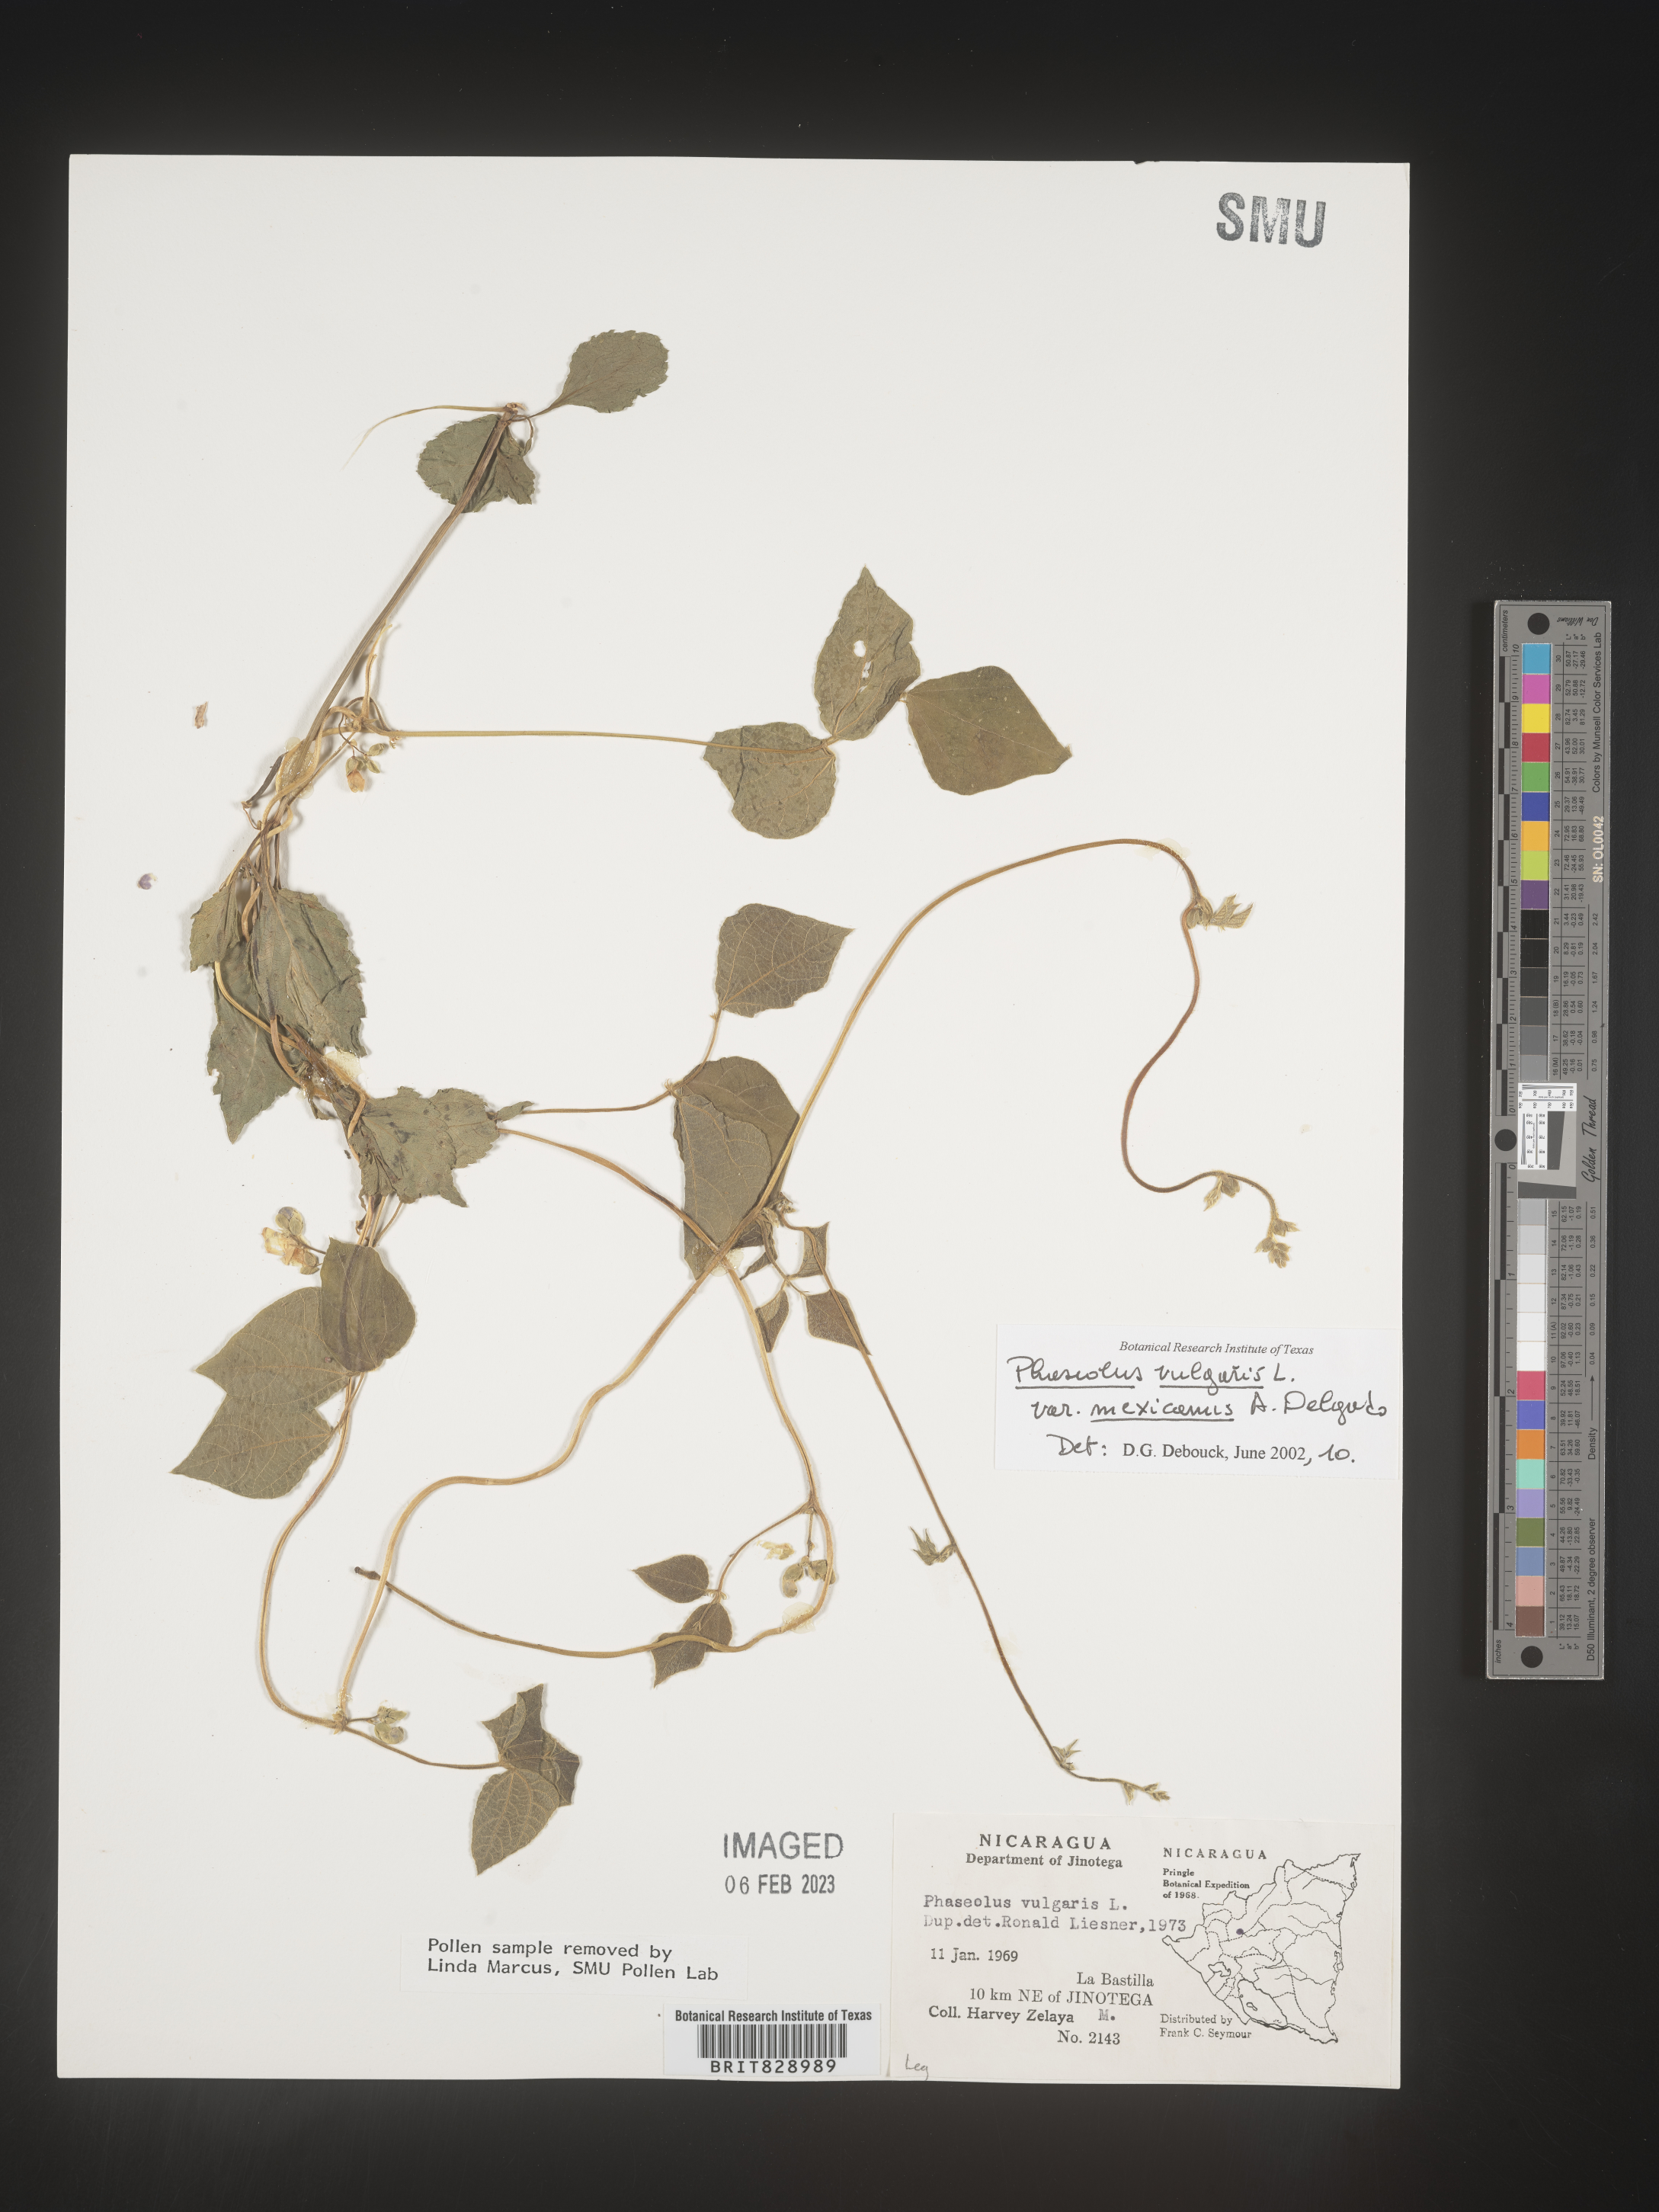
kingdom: Plantae
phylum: Tracheophyta
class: Magnoliopsida
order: Fabales
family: Fabaceae
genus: Phaseolus
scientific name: Phaseolus
